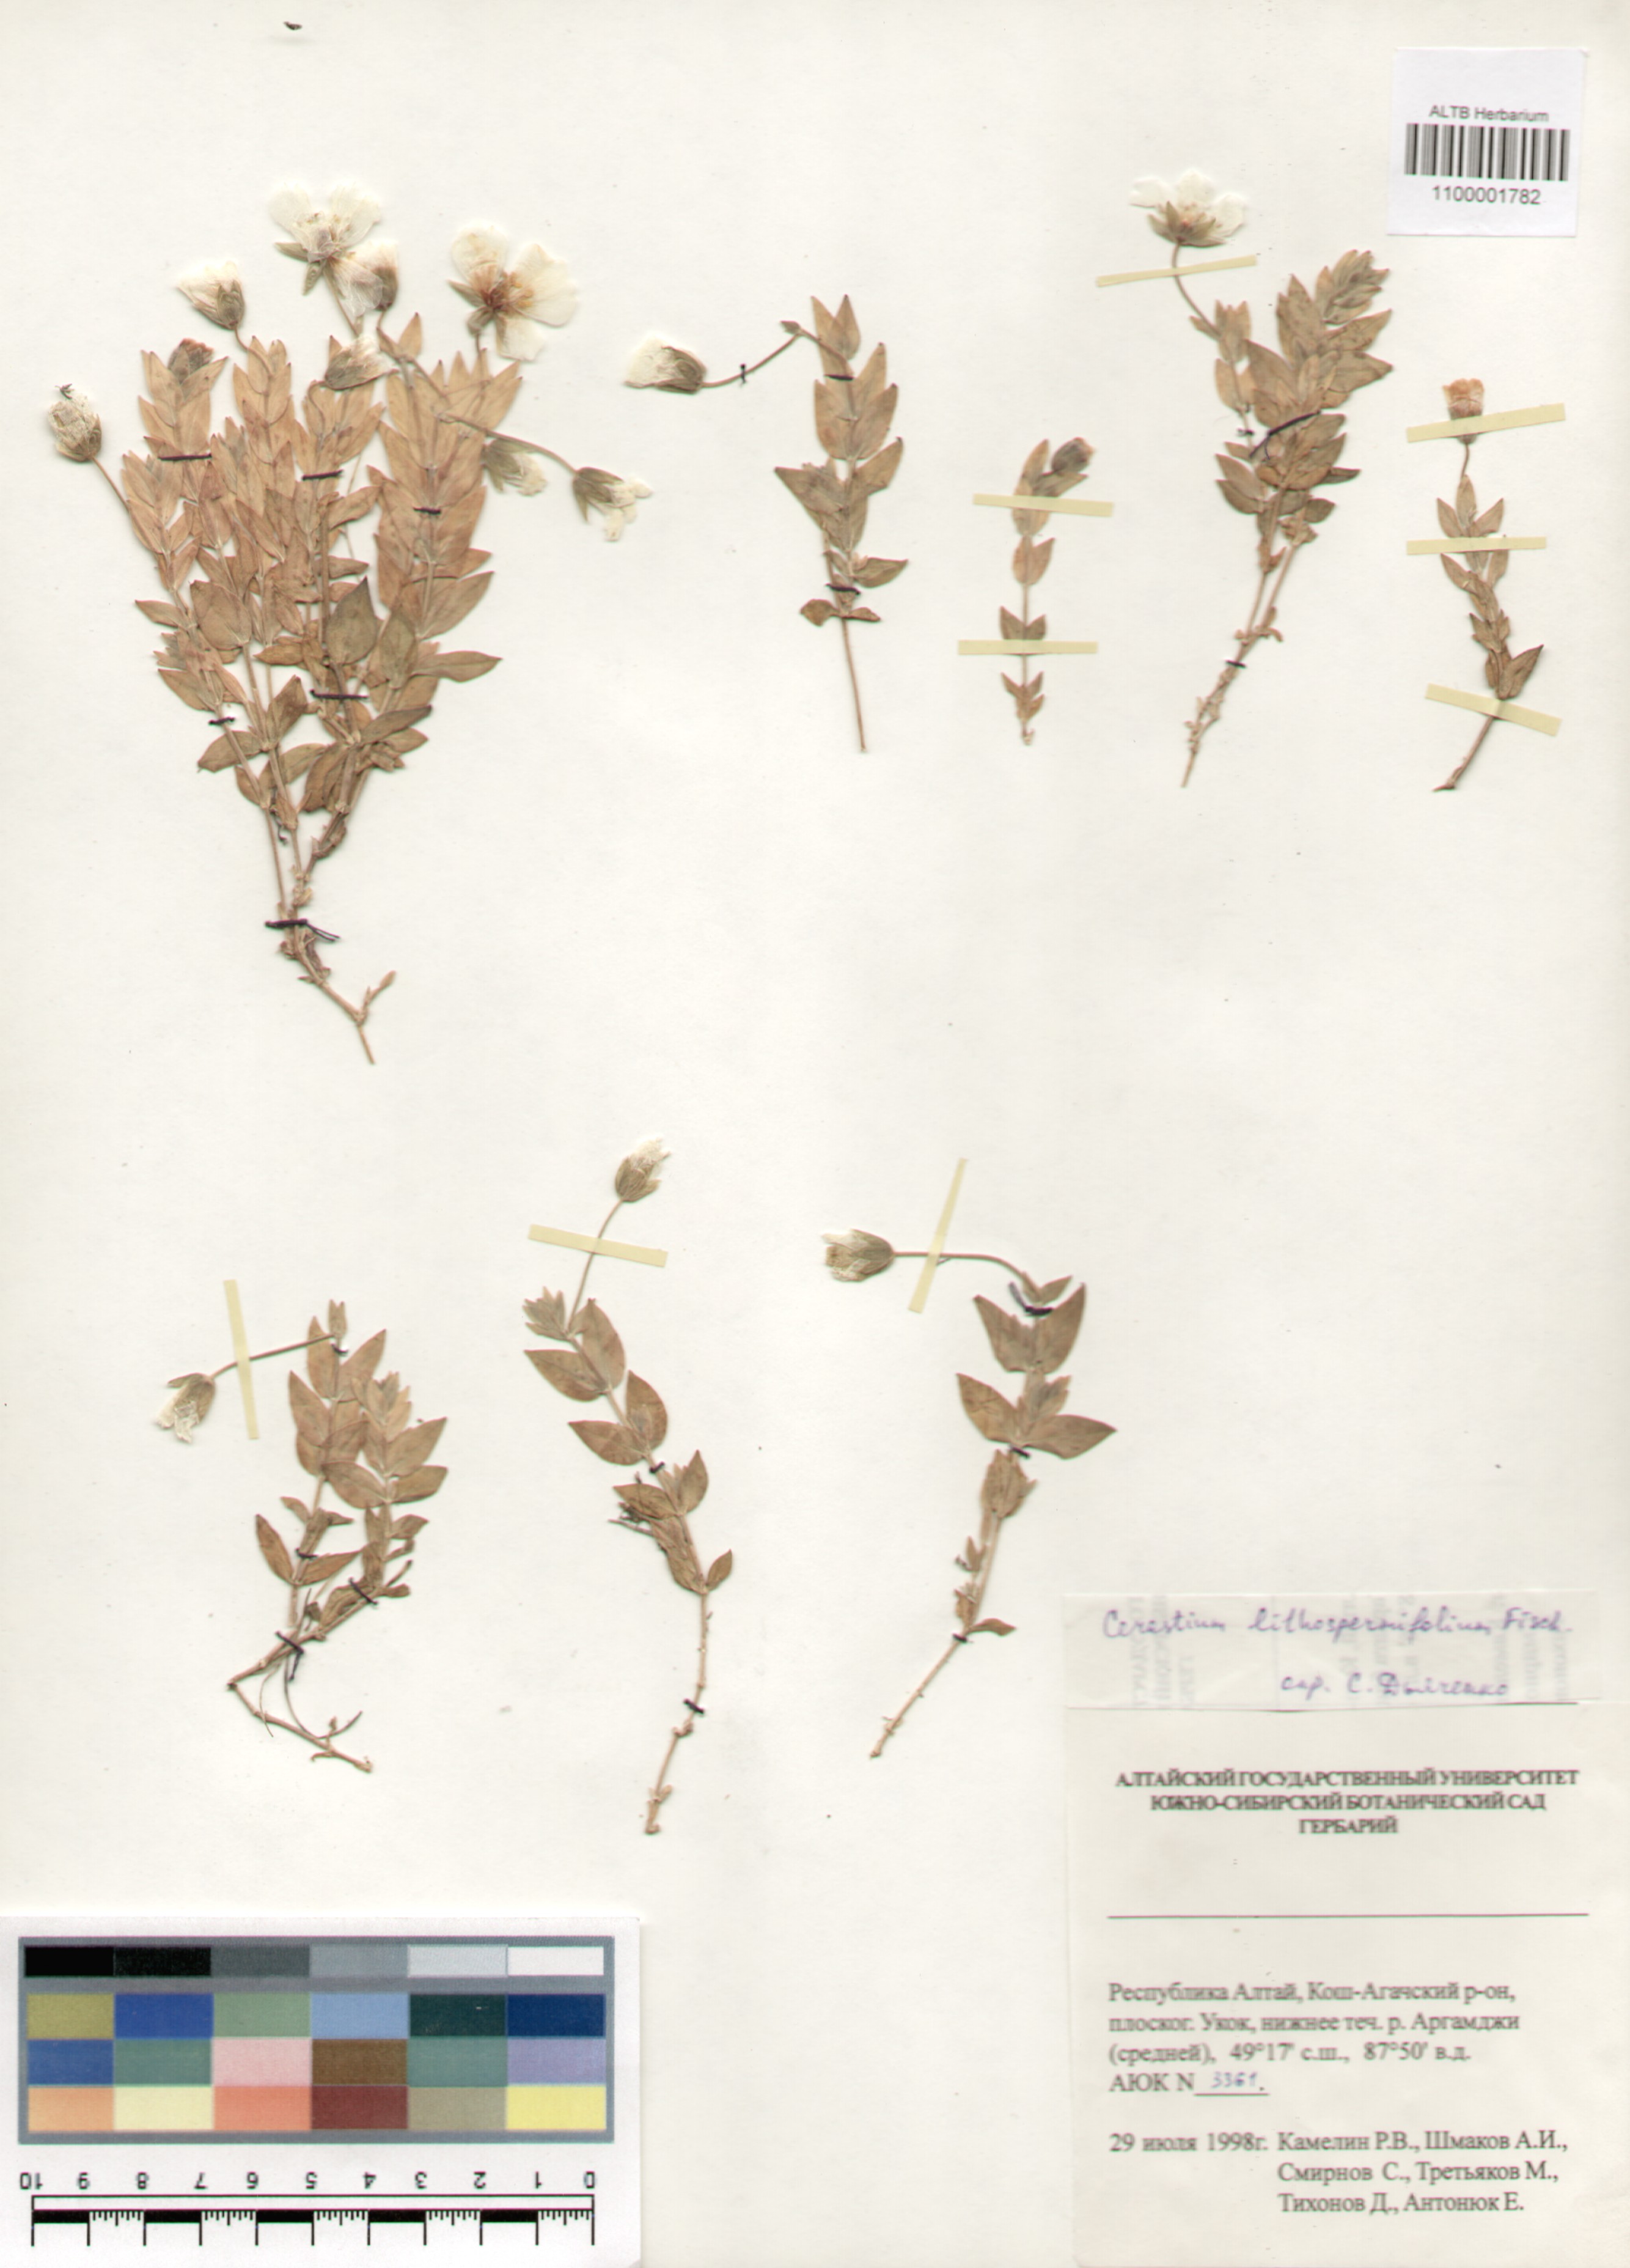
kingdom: Plantae
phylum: Tracheophyta
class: Magnoliopsida
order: Caryophyllales
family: Caryophyllaceae
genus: Cerastium
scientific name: Cerastium lithospermifolium
